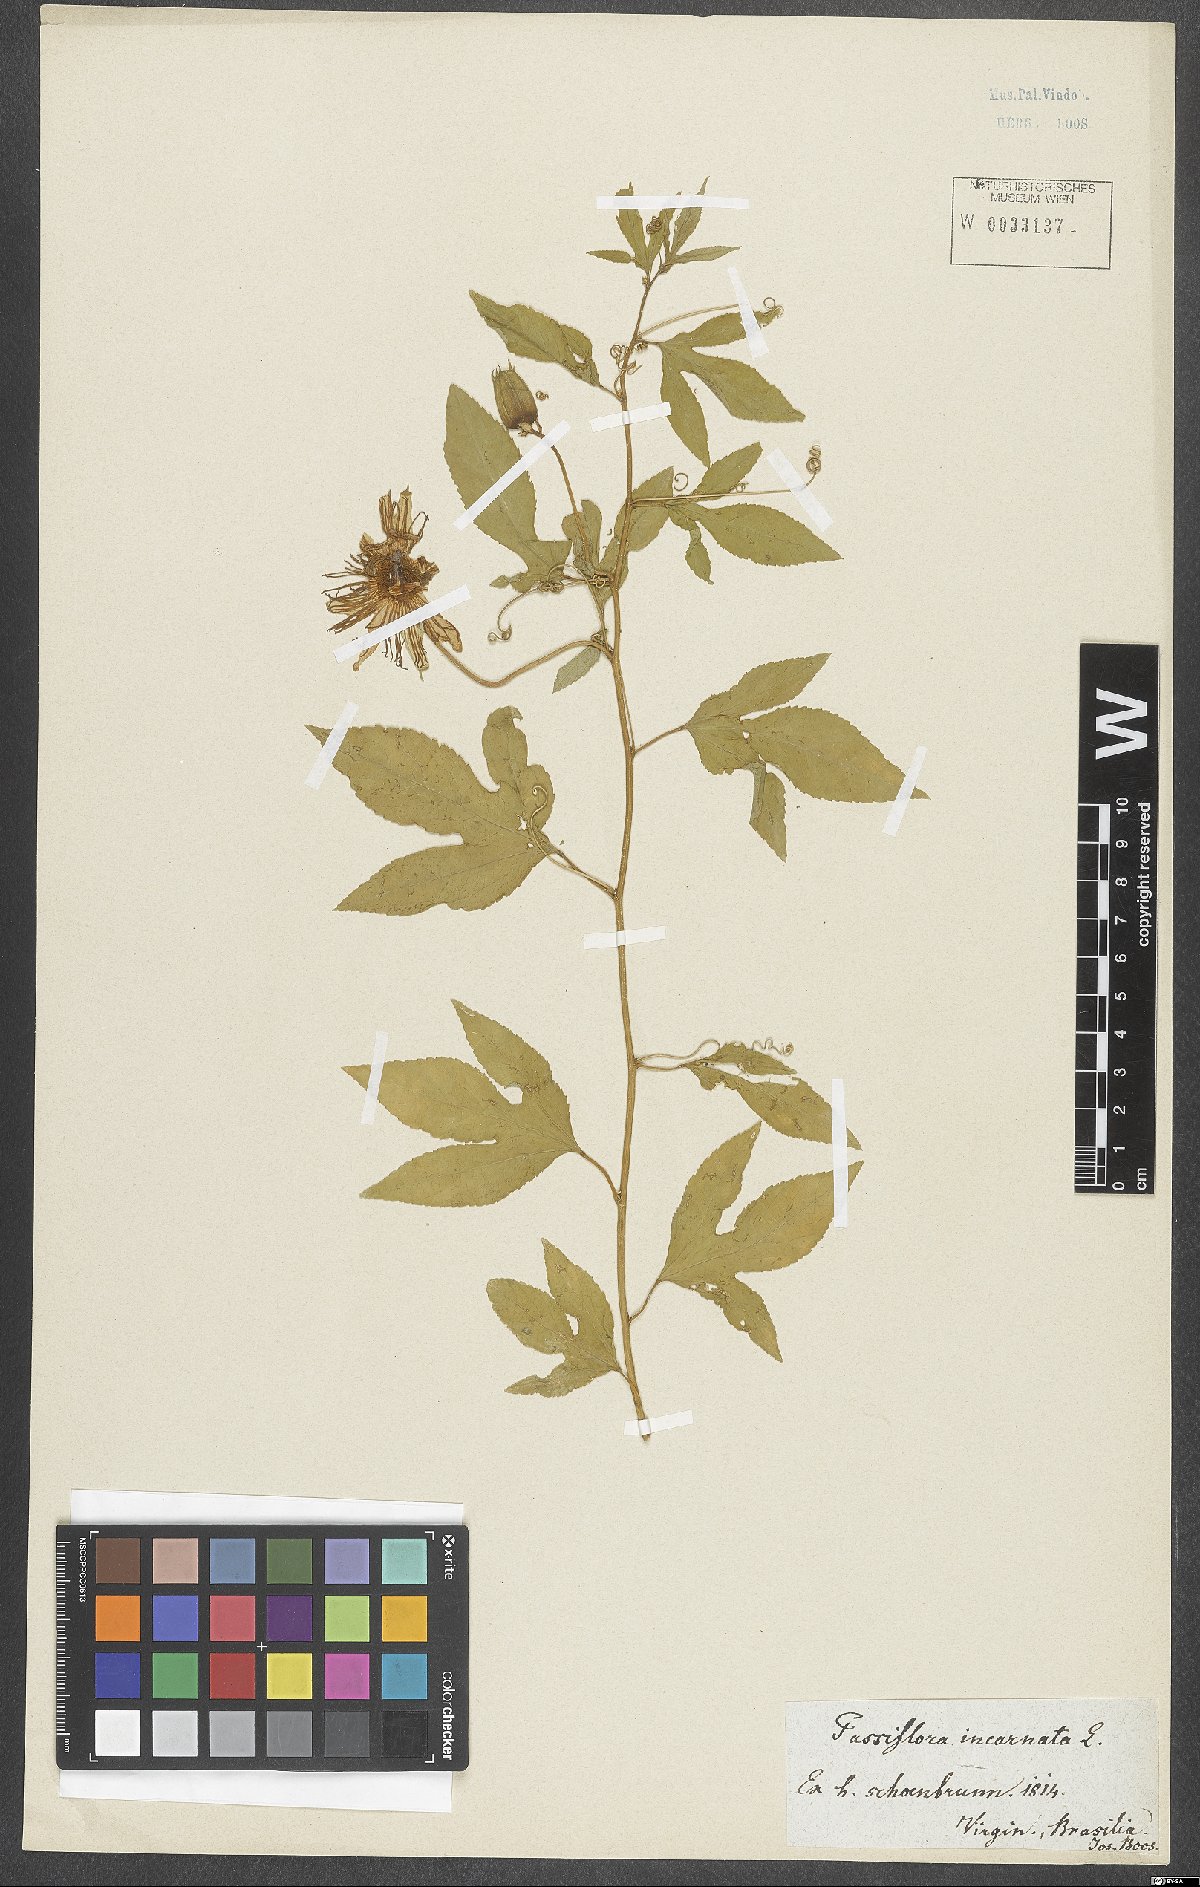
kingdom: Plantae
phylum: Tracheophyta
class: Magnoliopsida
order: Malpighiales
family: Passifloraceae
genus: Passiflora
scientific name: Passiflora incarnata
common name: Apricot-vine
